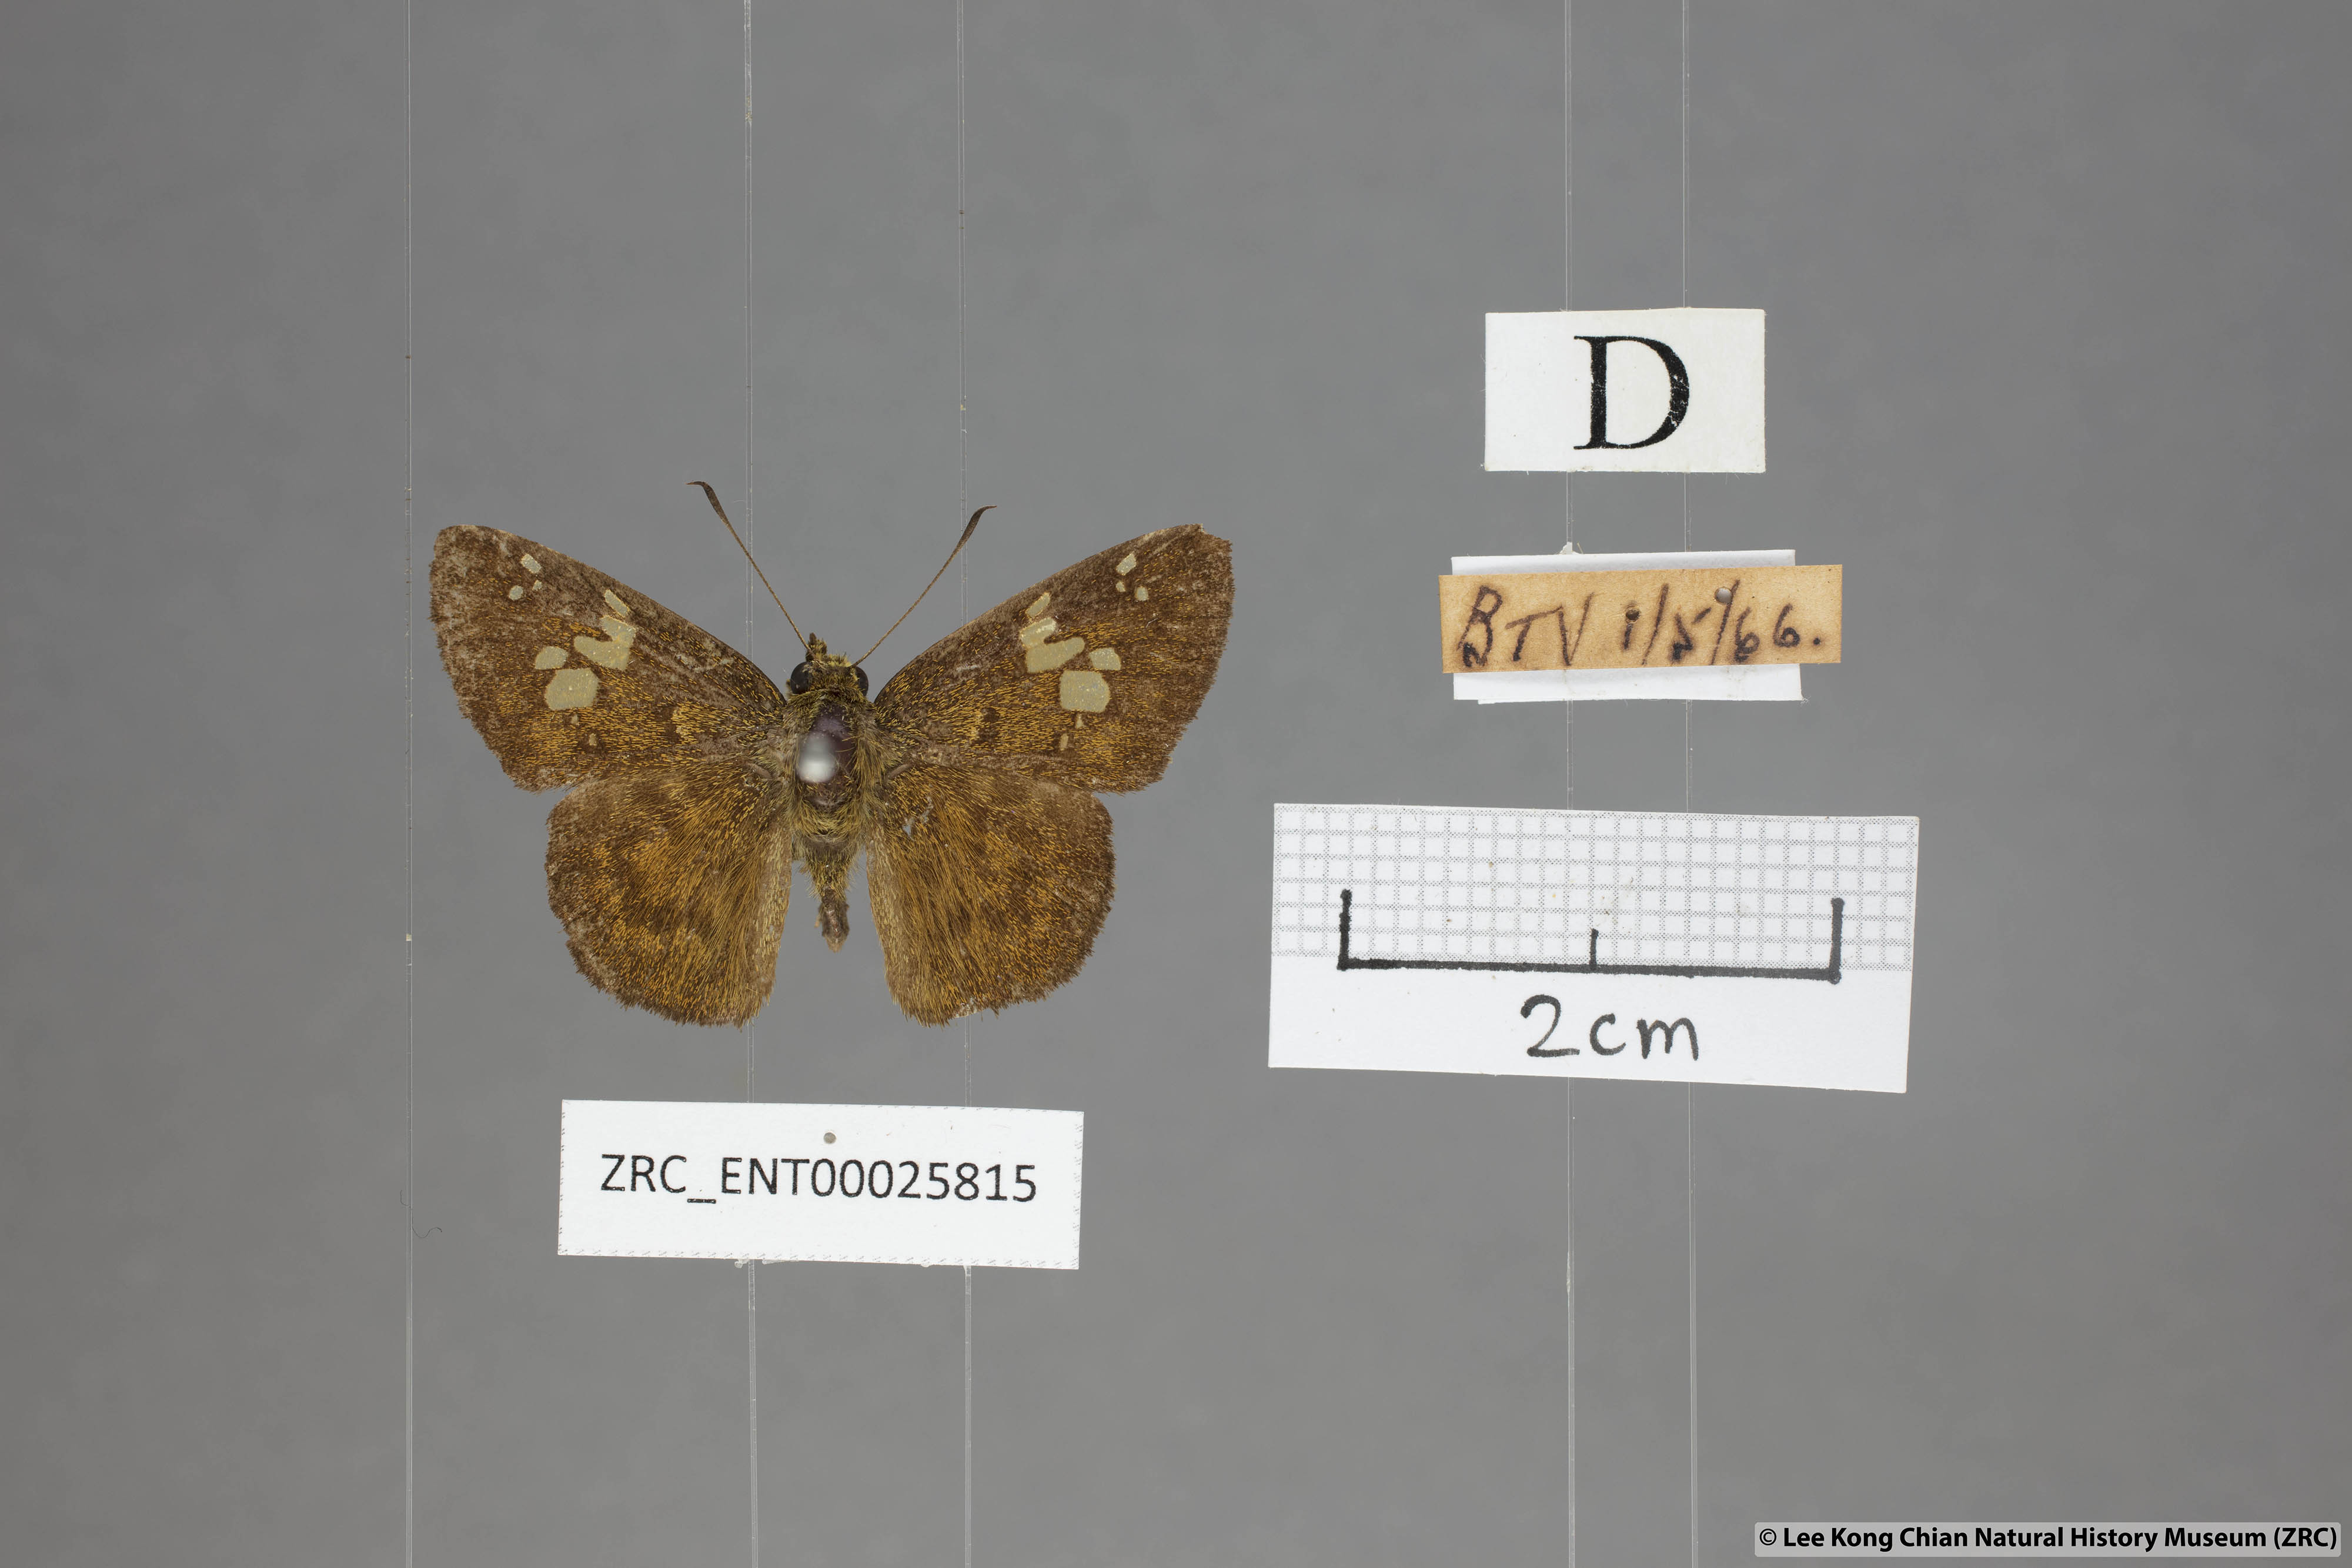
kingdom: Animalia
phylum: Arthropoda
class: Insecta
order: Lepidoptera
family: Hesperiidae
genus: Pseudocoladenia
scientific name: Pseudocoladenia dan
